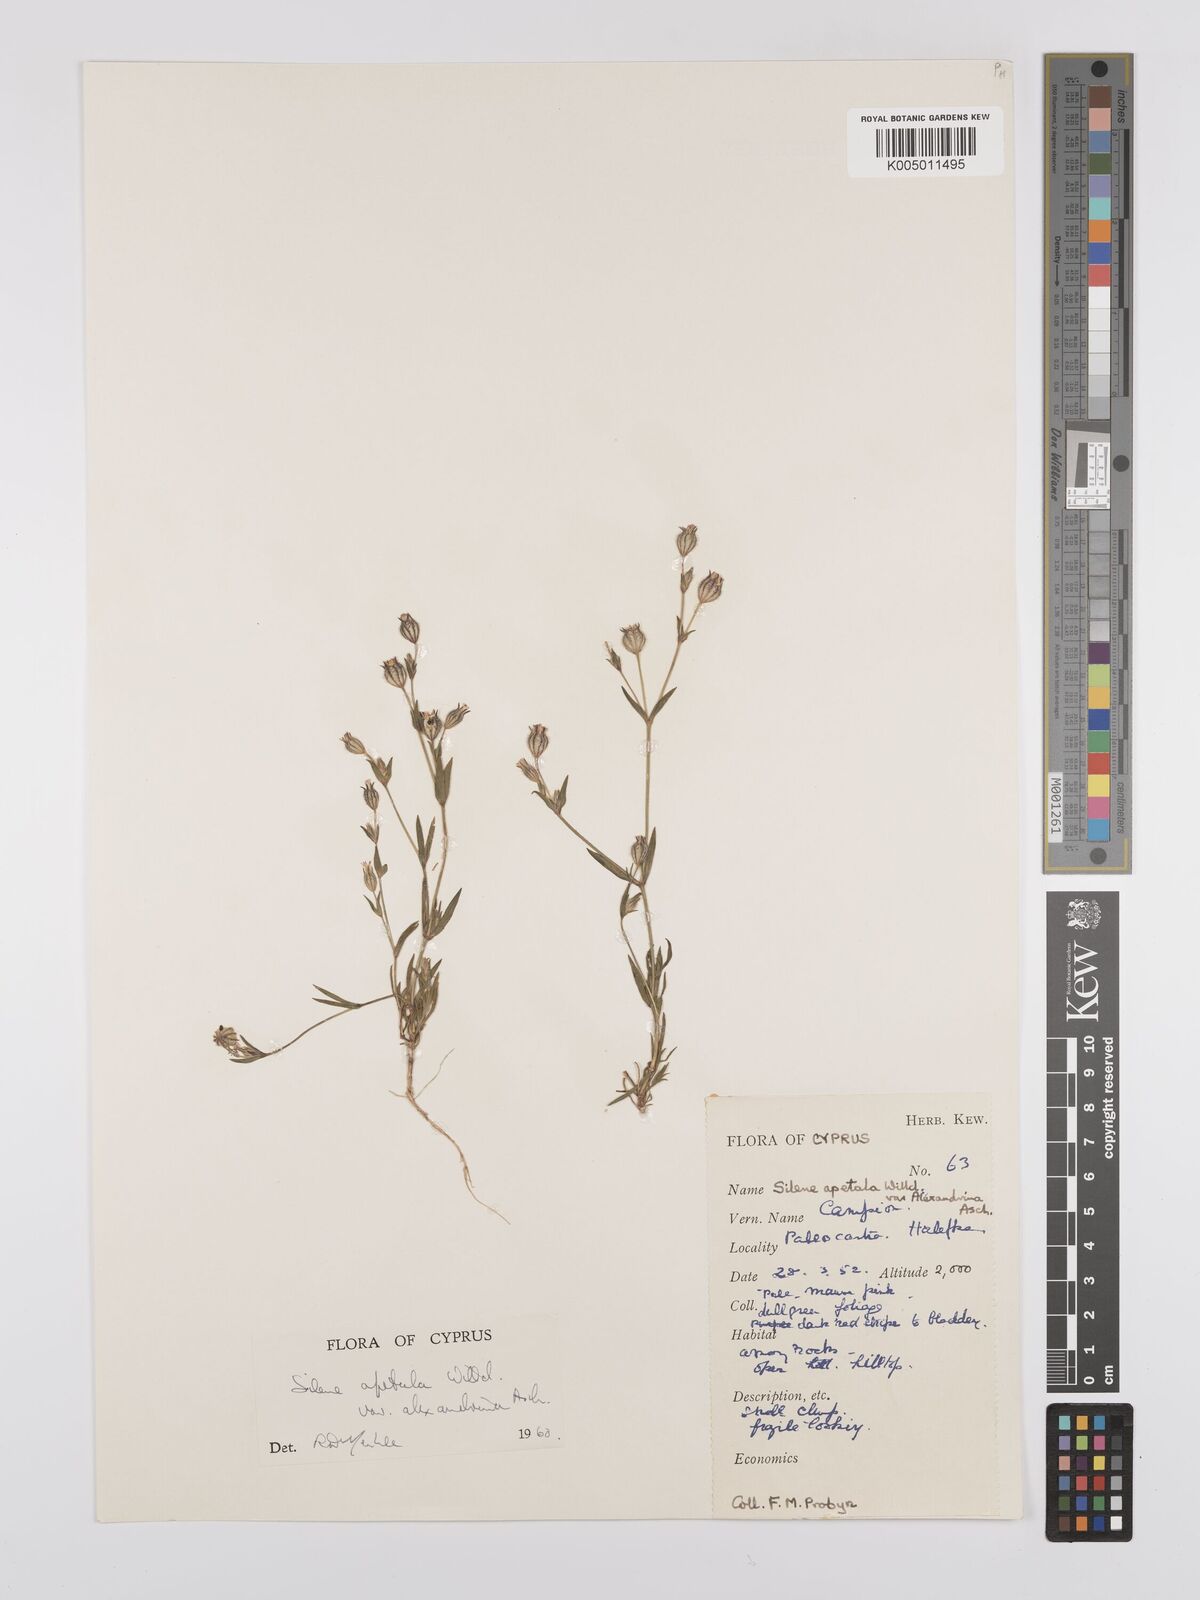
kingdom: Plantae
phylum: Tracheophyta
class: Magnoliopsida
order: Caryophyllales
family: Caryophyllaceae
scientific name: Caryophyllaceae
